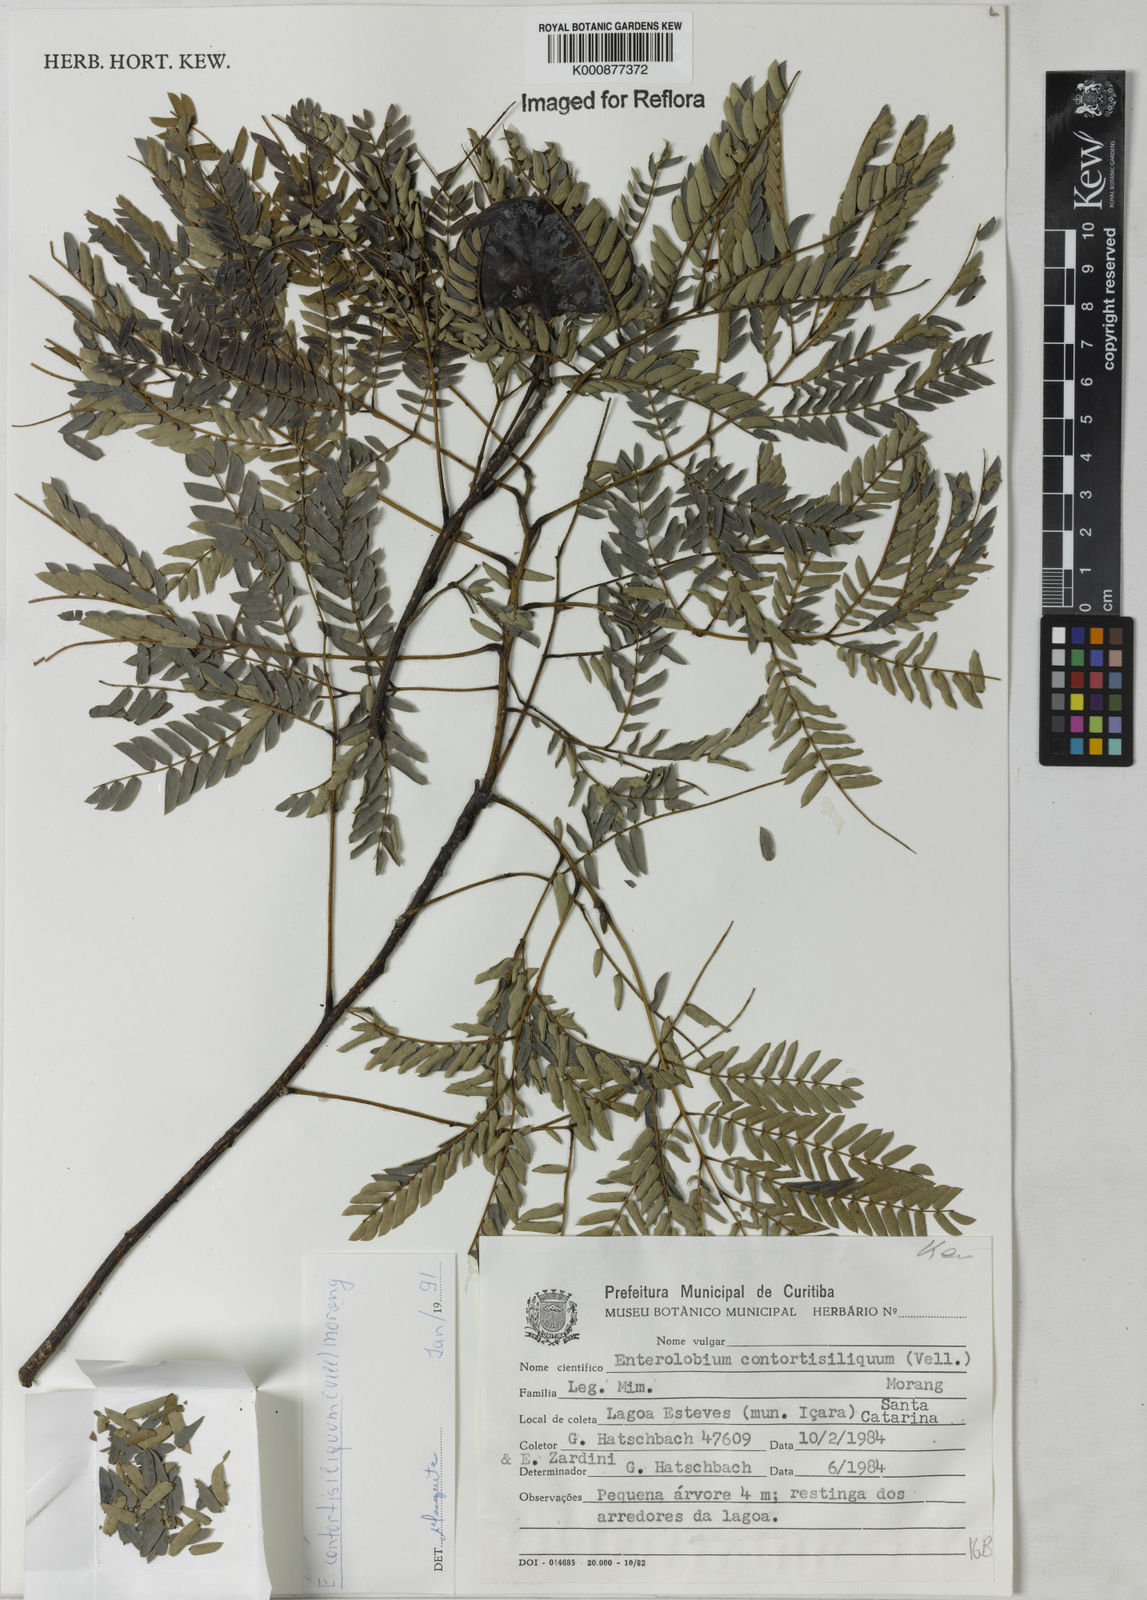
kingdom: Plantae
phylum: Tracheophyta
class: Magnoliopsida
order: Fabales
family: Fabaceae
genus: Enterolobium
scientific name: Enterolobium contortisiliquum
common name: Pacara earpod tree
